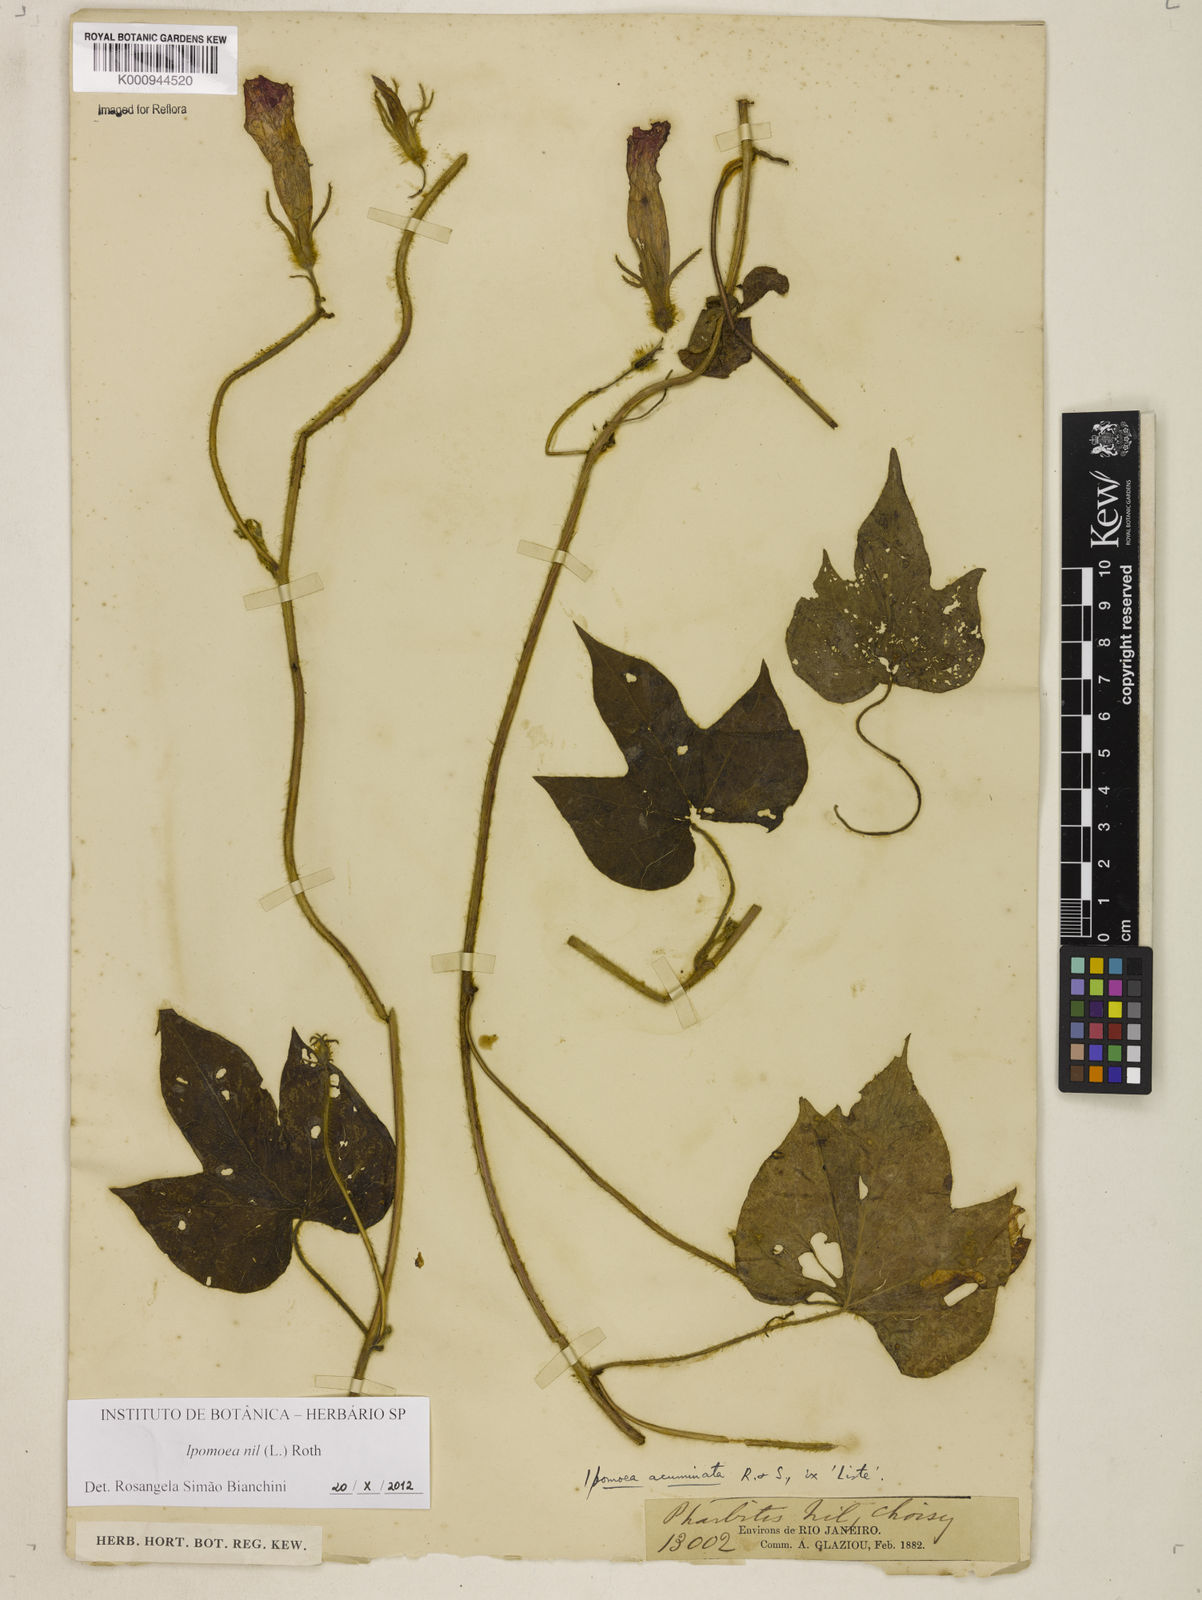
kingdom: Plantae
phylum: Tracheophyta
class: Magnoliopsida
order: Solanales
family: Convolvulaceae
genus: Ipomoea
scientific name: Ipomoea nil
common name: Japanese morning-glory
